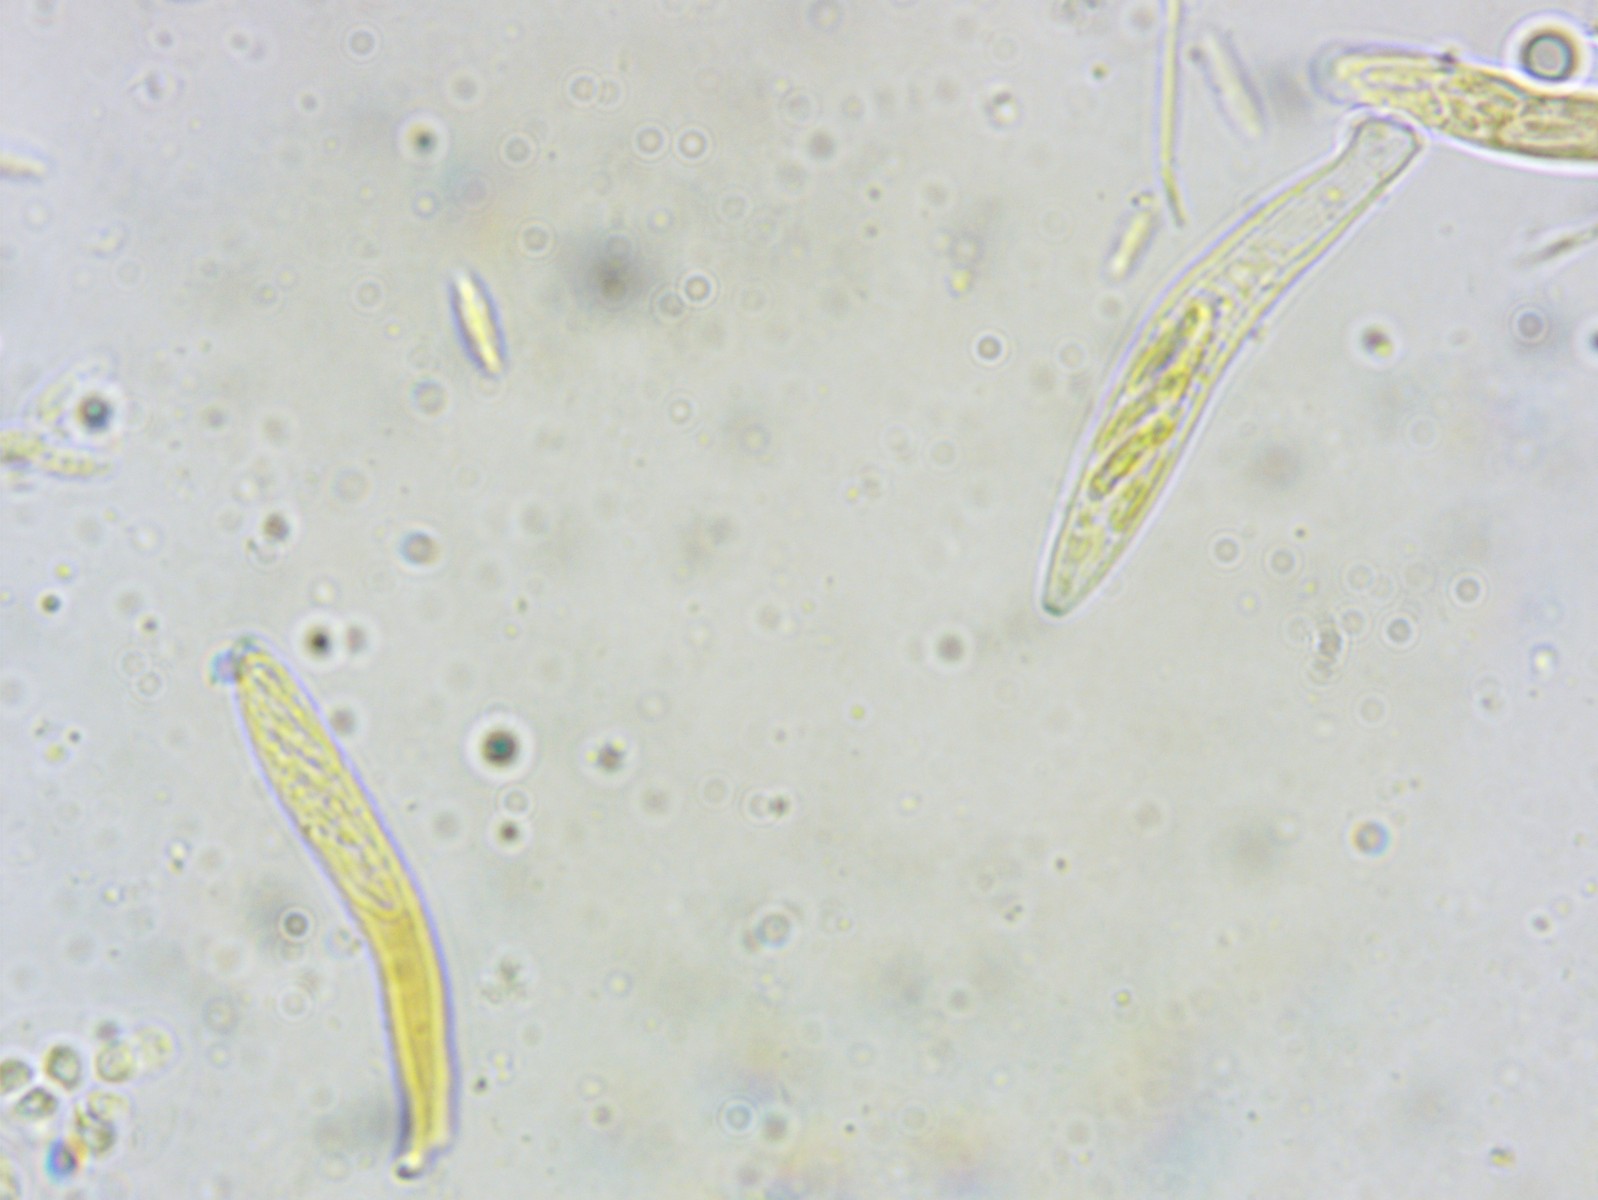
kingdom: Fungi
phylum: Ascomycota
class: Leotiomycetes
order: Helotiales
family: Hyaloscyphaceae
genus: Hyaloscypha
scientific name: Hyaloscypha fuckelii
